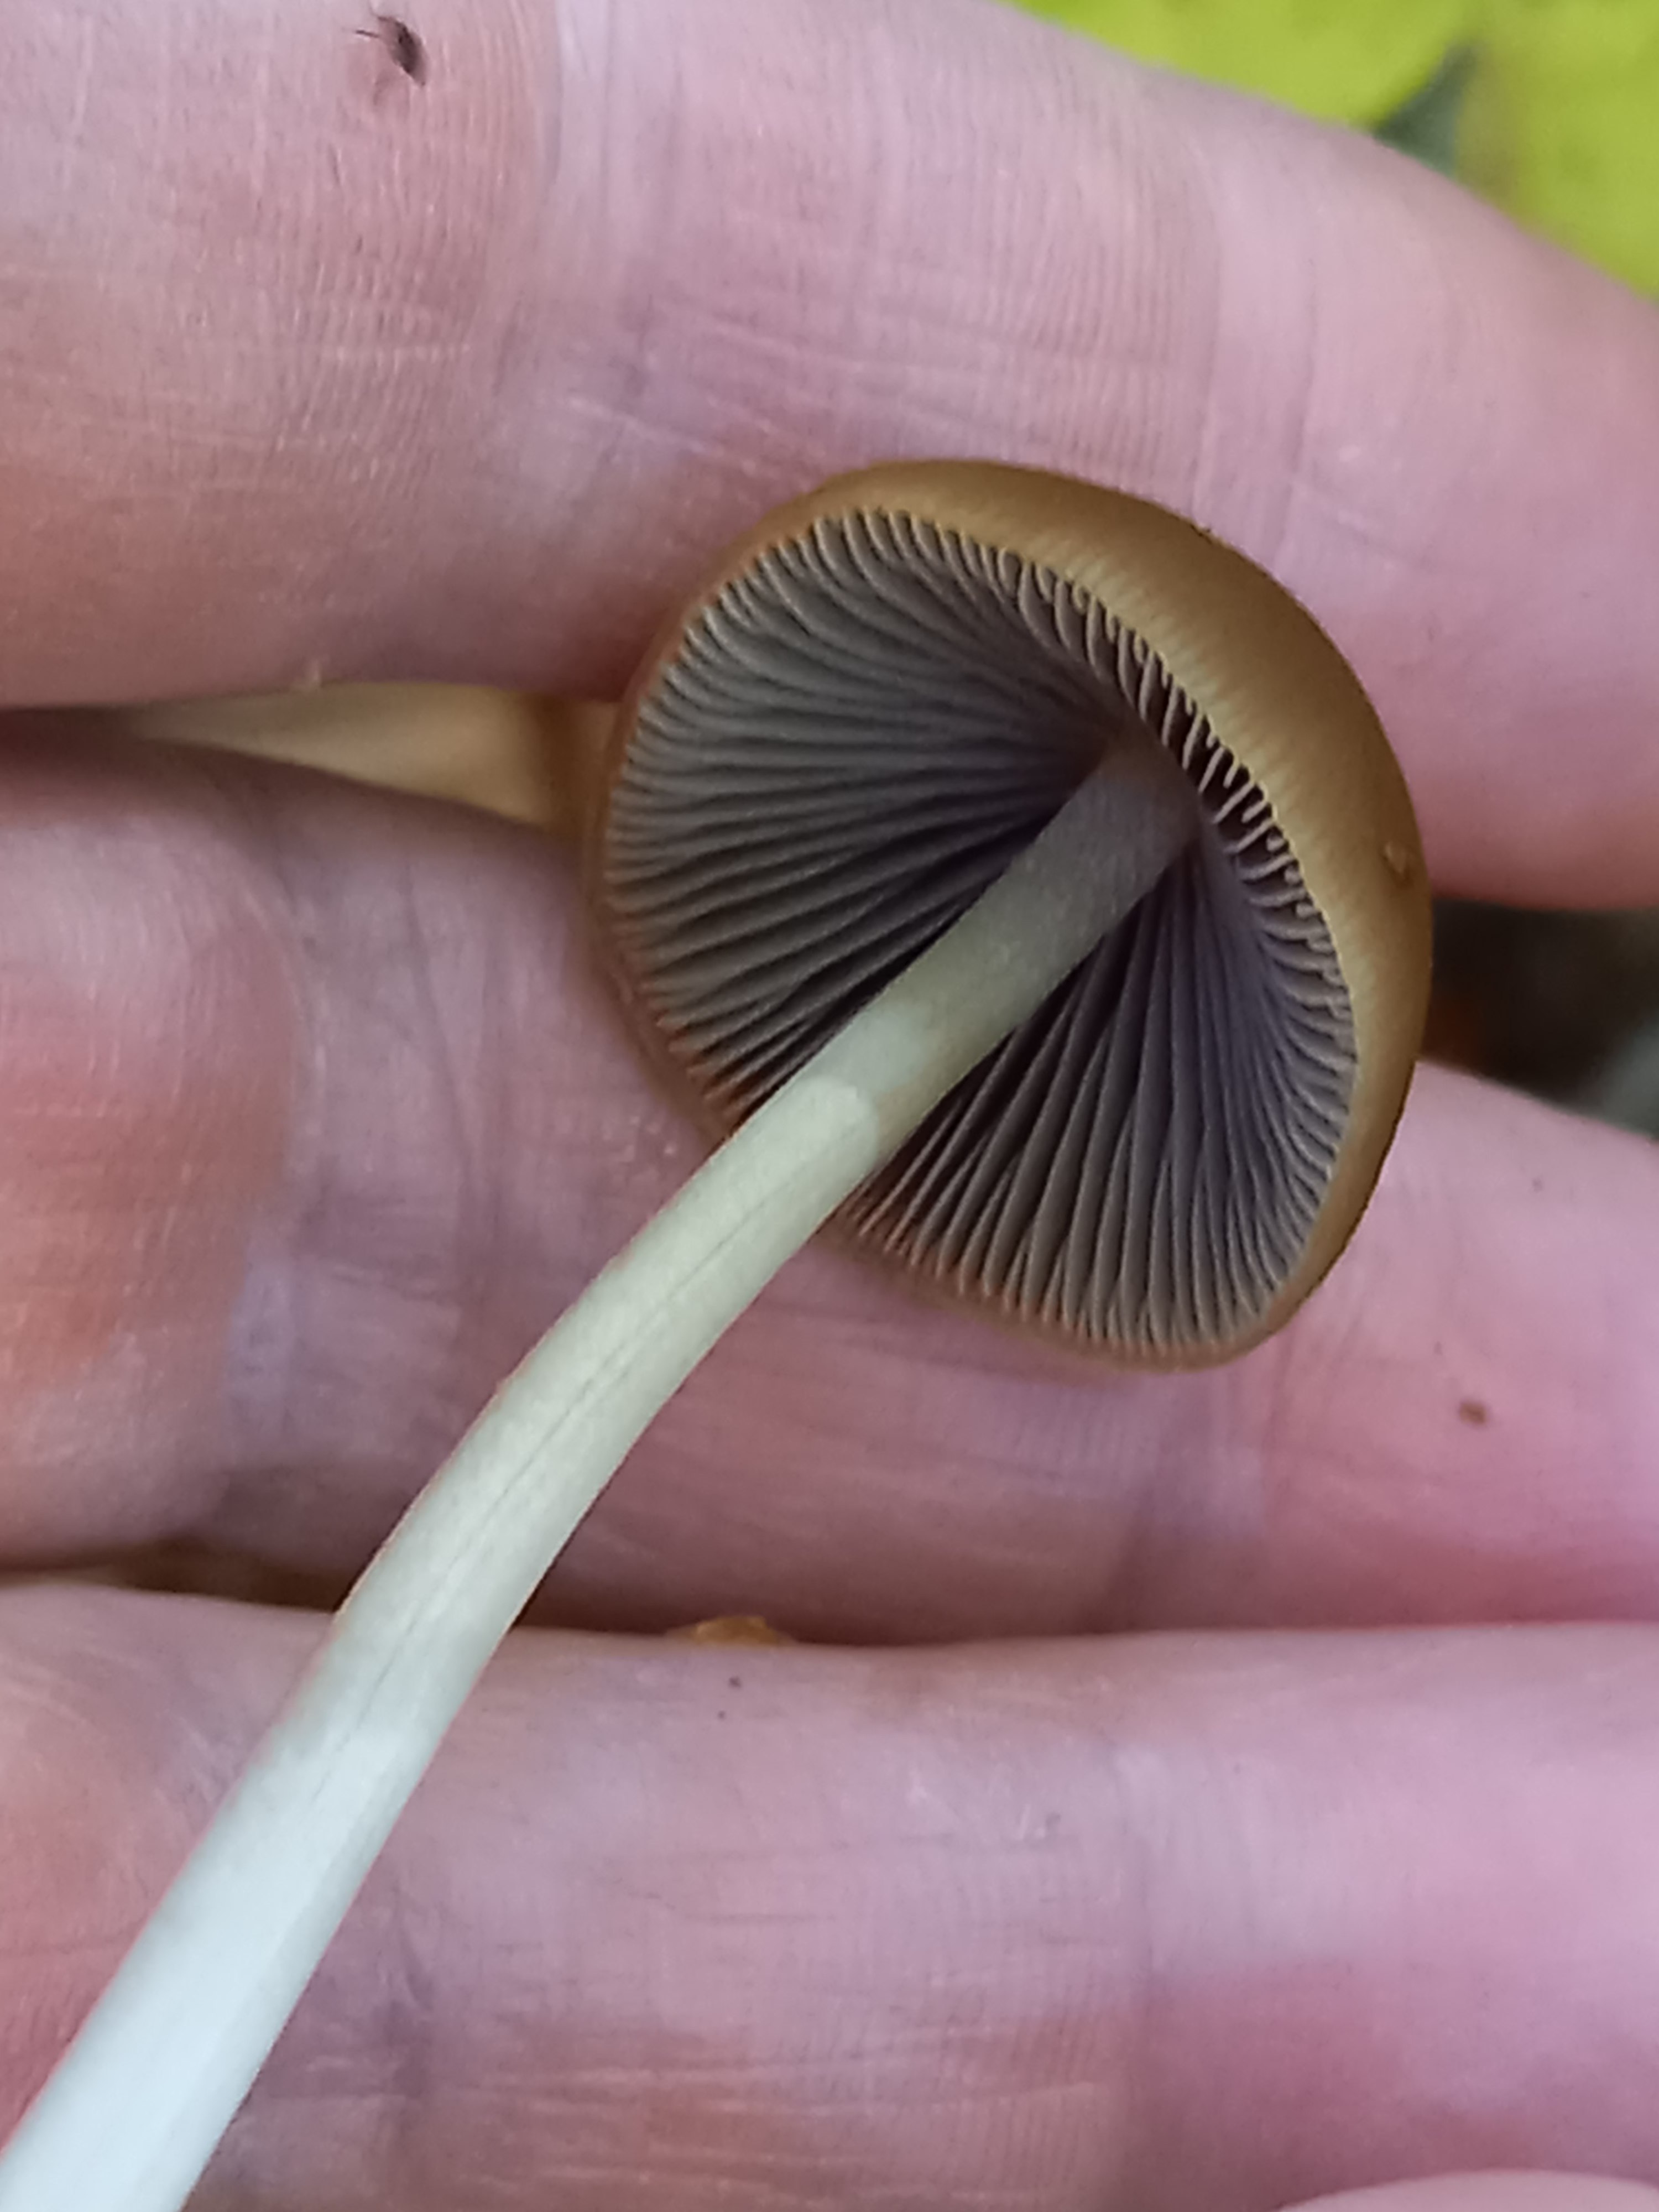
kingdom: Fungi
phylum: Basidiomycota
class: Agaricomycetes
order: Agaricales
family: Psathyrellaceae
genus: Parasola
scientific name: Parasola conopilea
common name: kegle-hjulhat
